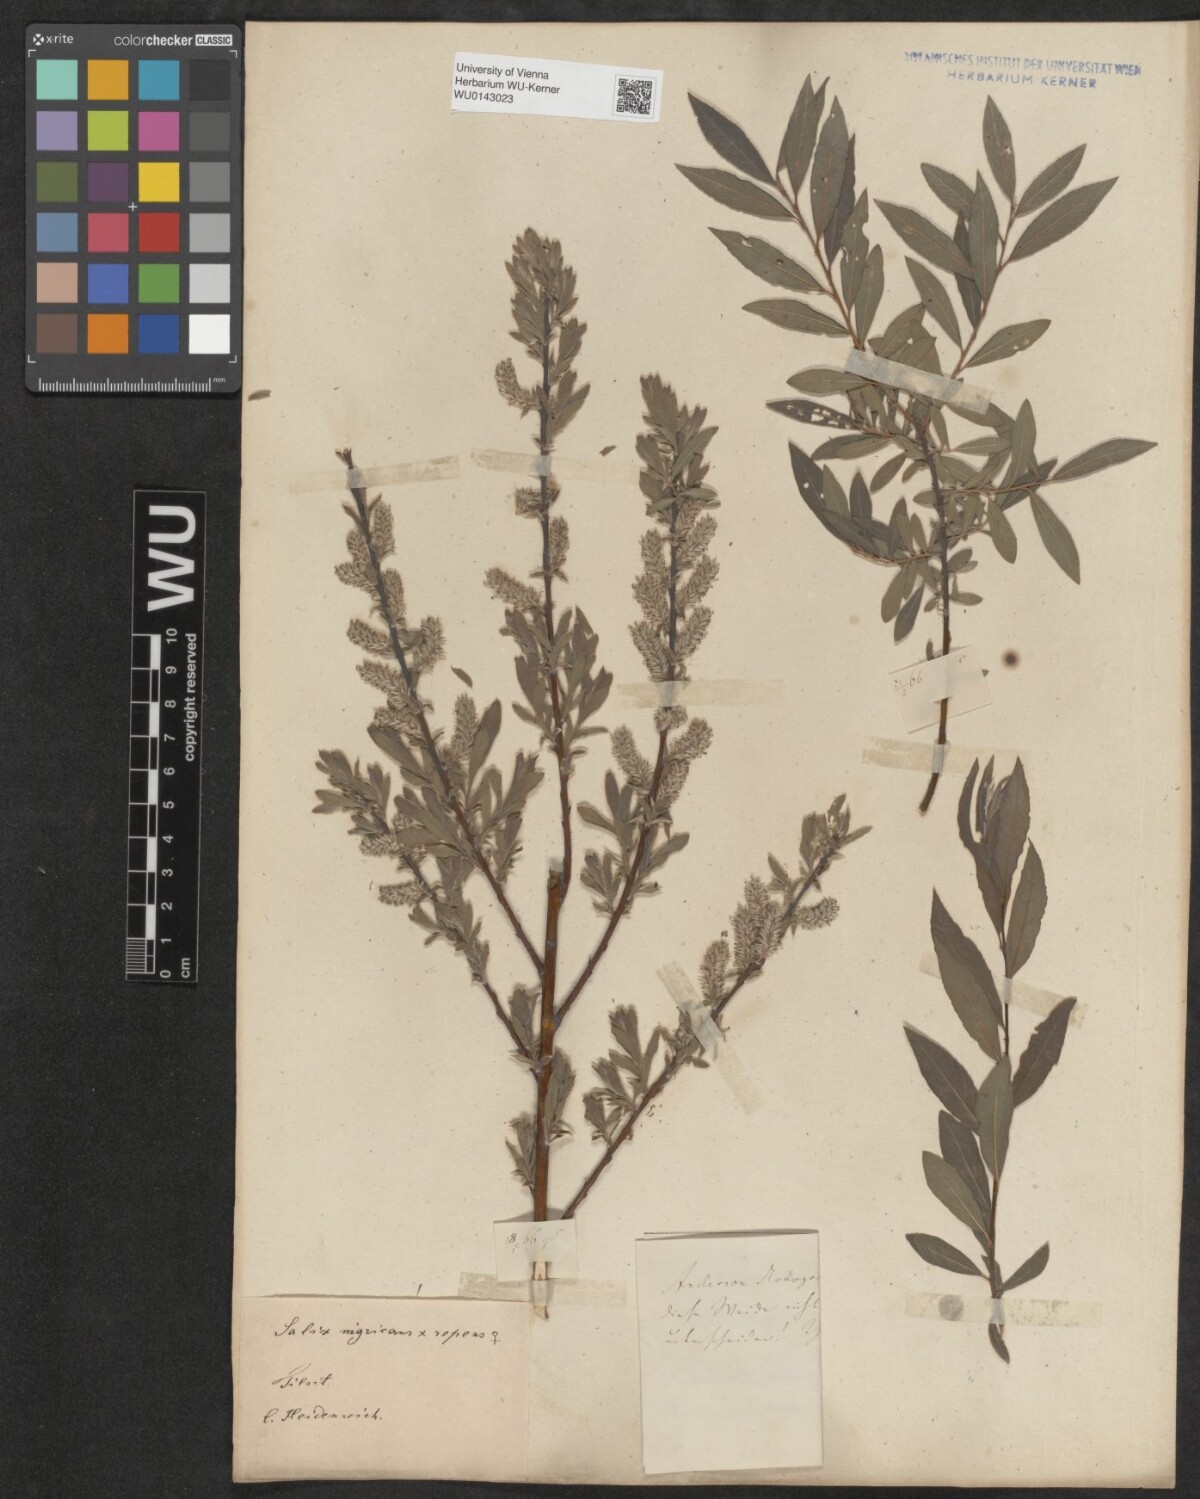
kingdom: Plantae
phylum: Tracheophyta
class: Magnoliopsida
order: Malpighiales
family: Salicaceae
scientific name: Salicaceae
